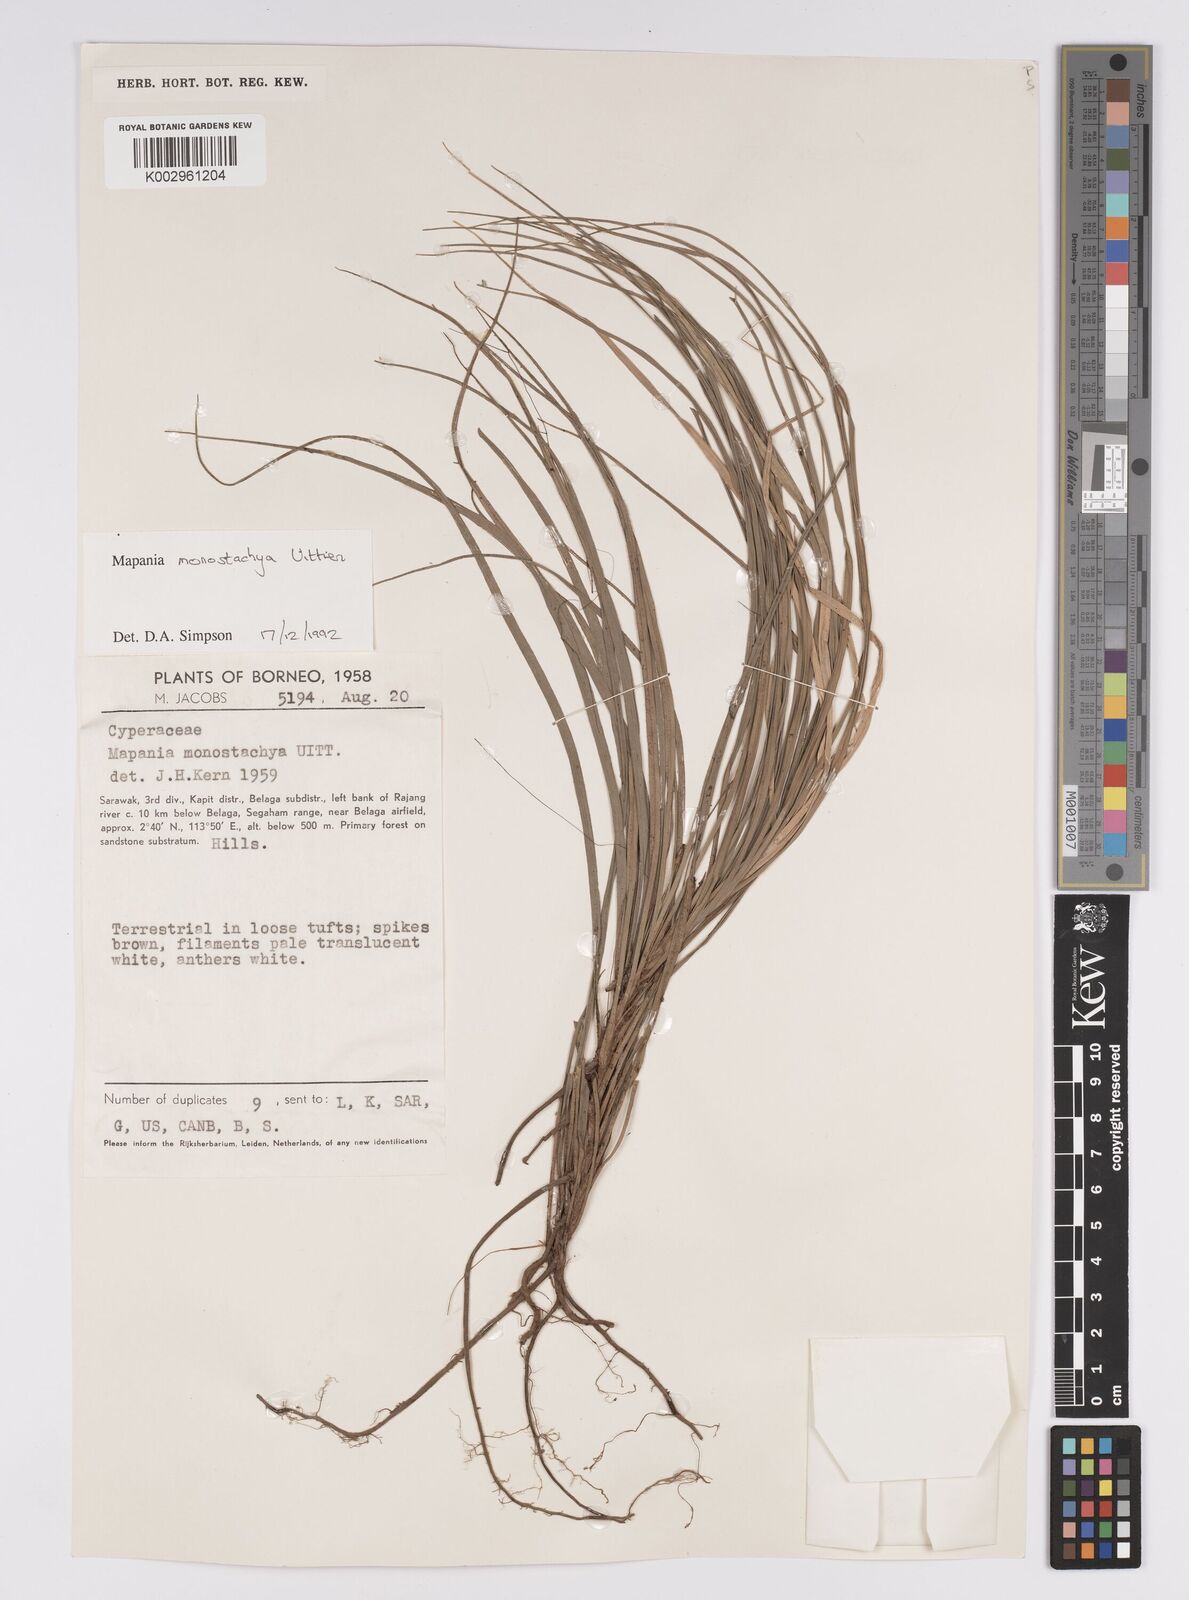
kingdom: Plantae
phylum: Tracheophyta
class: Liliopsida
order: Poales
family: Cyperaceae
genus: Mapania
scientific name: Mapania monostachya
